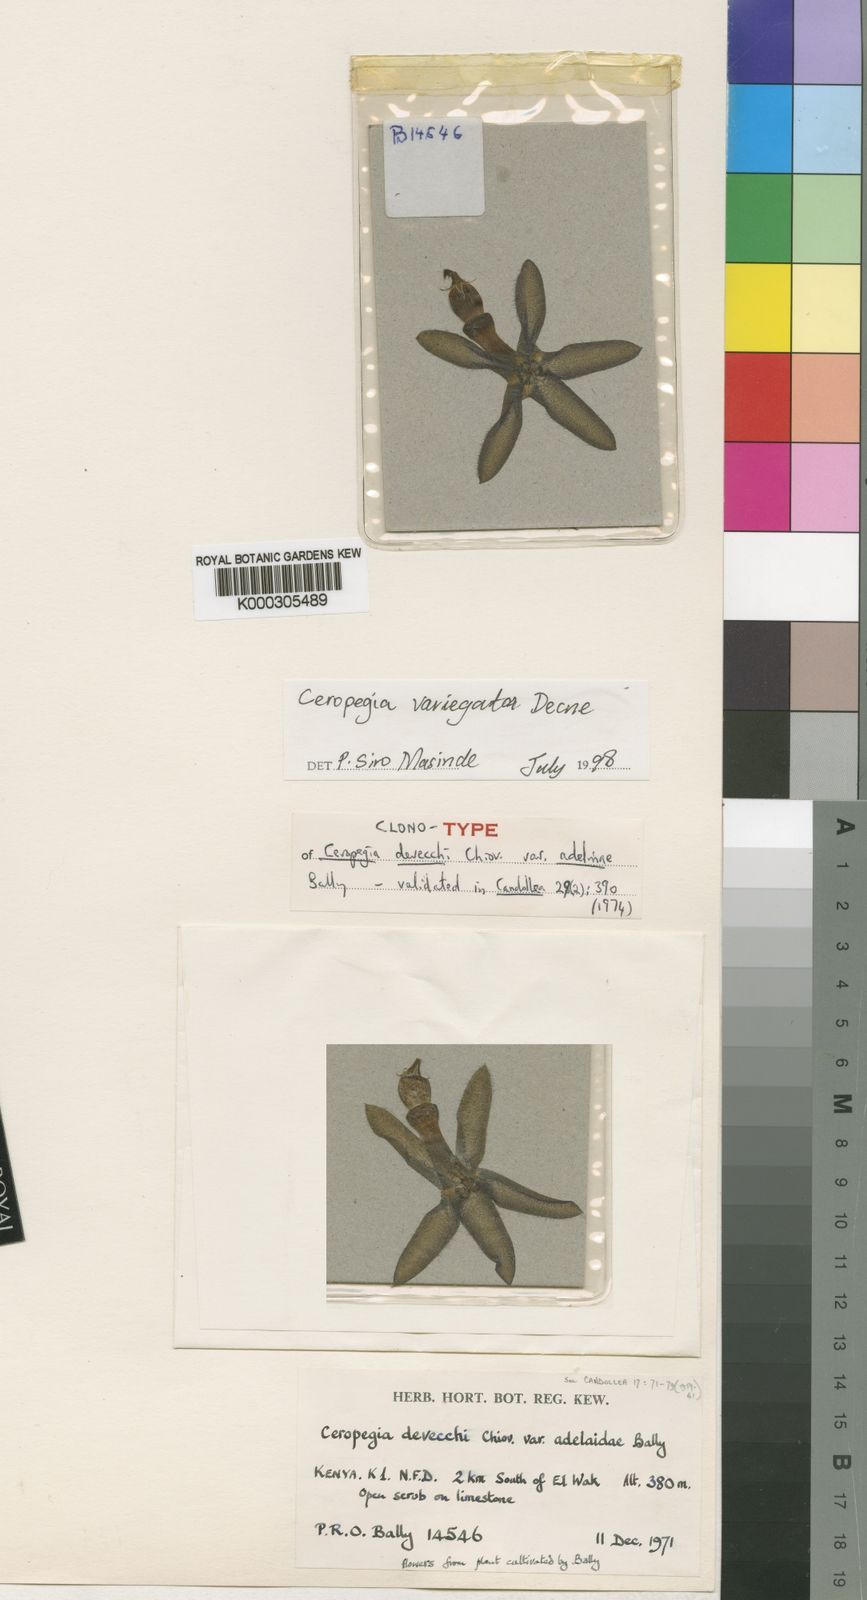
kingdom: Plantae
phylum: Tracheophyta
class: Magnoliopsida
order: Gentianales
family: Apocynaceae
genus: Ceropegia
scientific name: Ceropegia variegata
